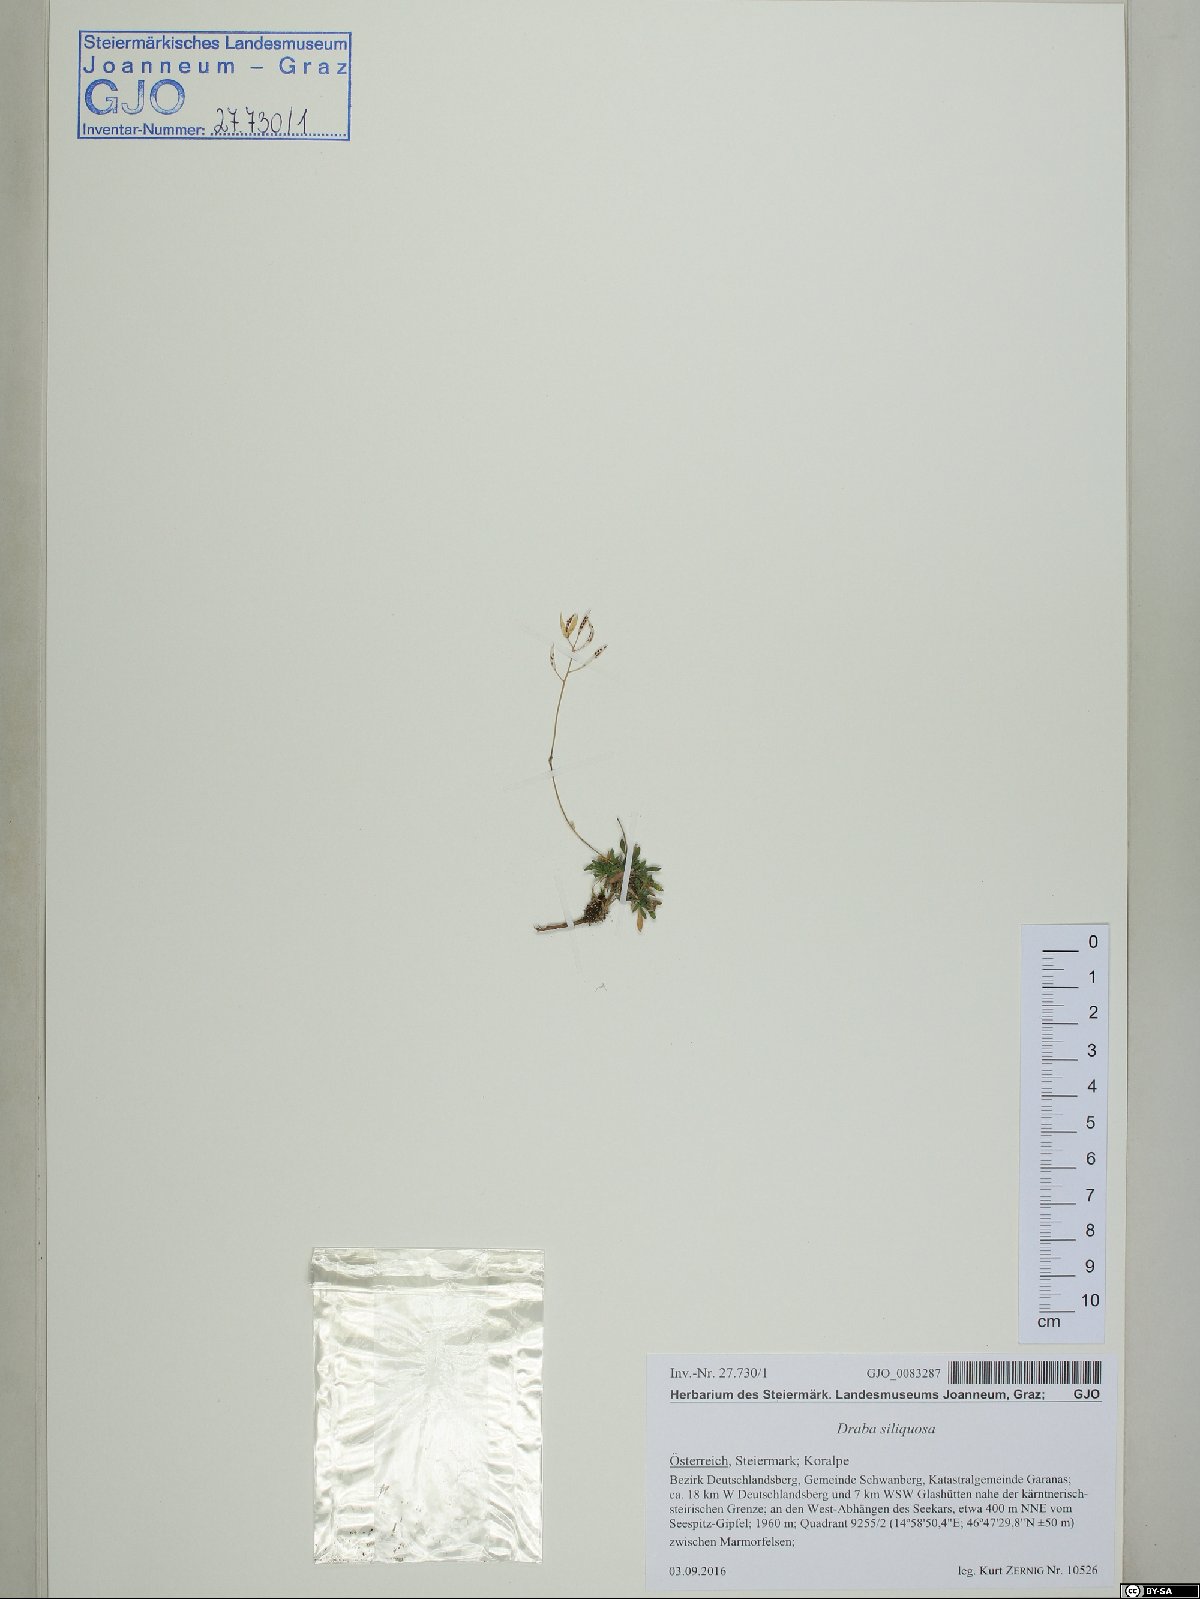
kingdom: Plantae
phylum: Tracheophyta
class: Magnoliopsida
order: Brassicales
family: Brassicaceae
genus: Draba
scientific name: Draba siliquosa
